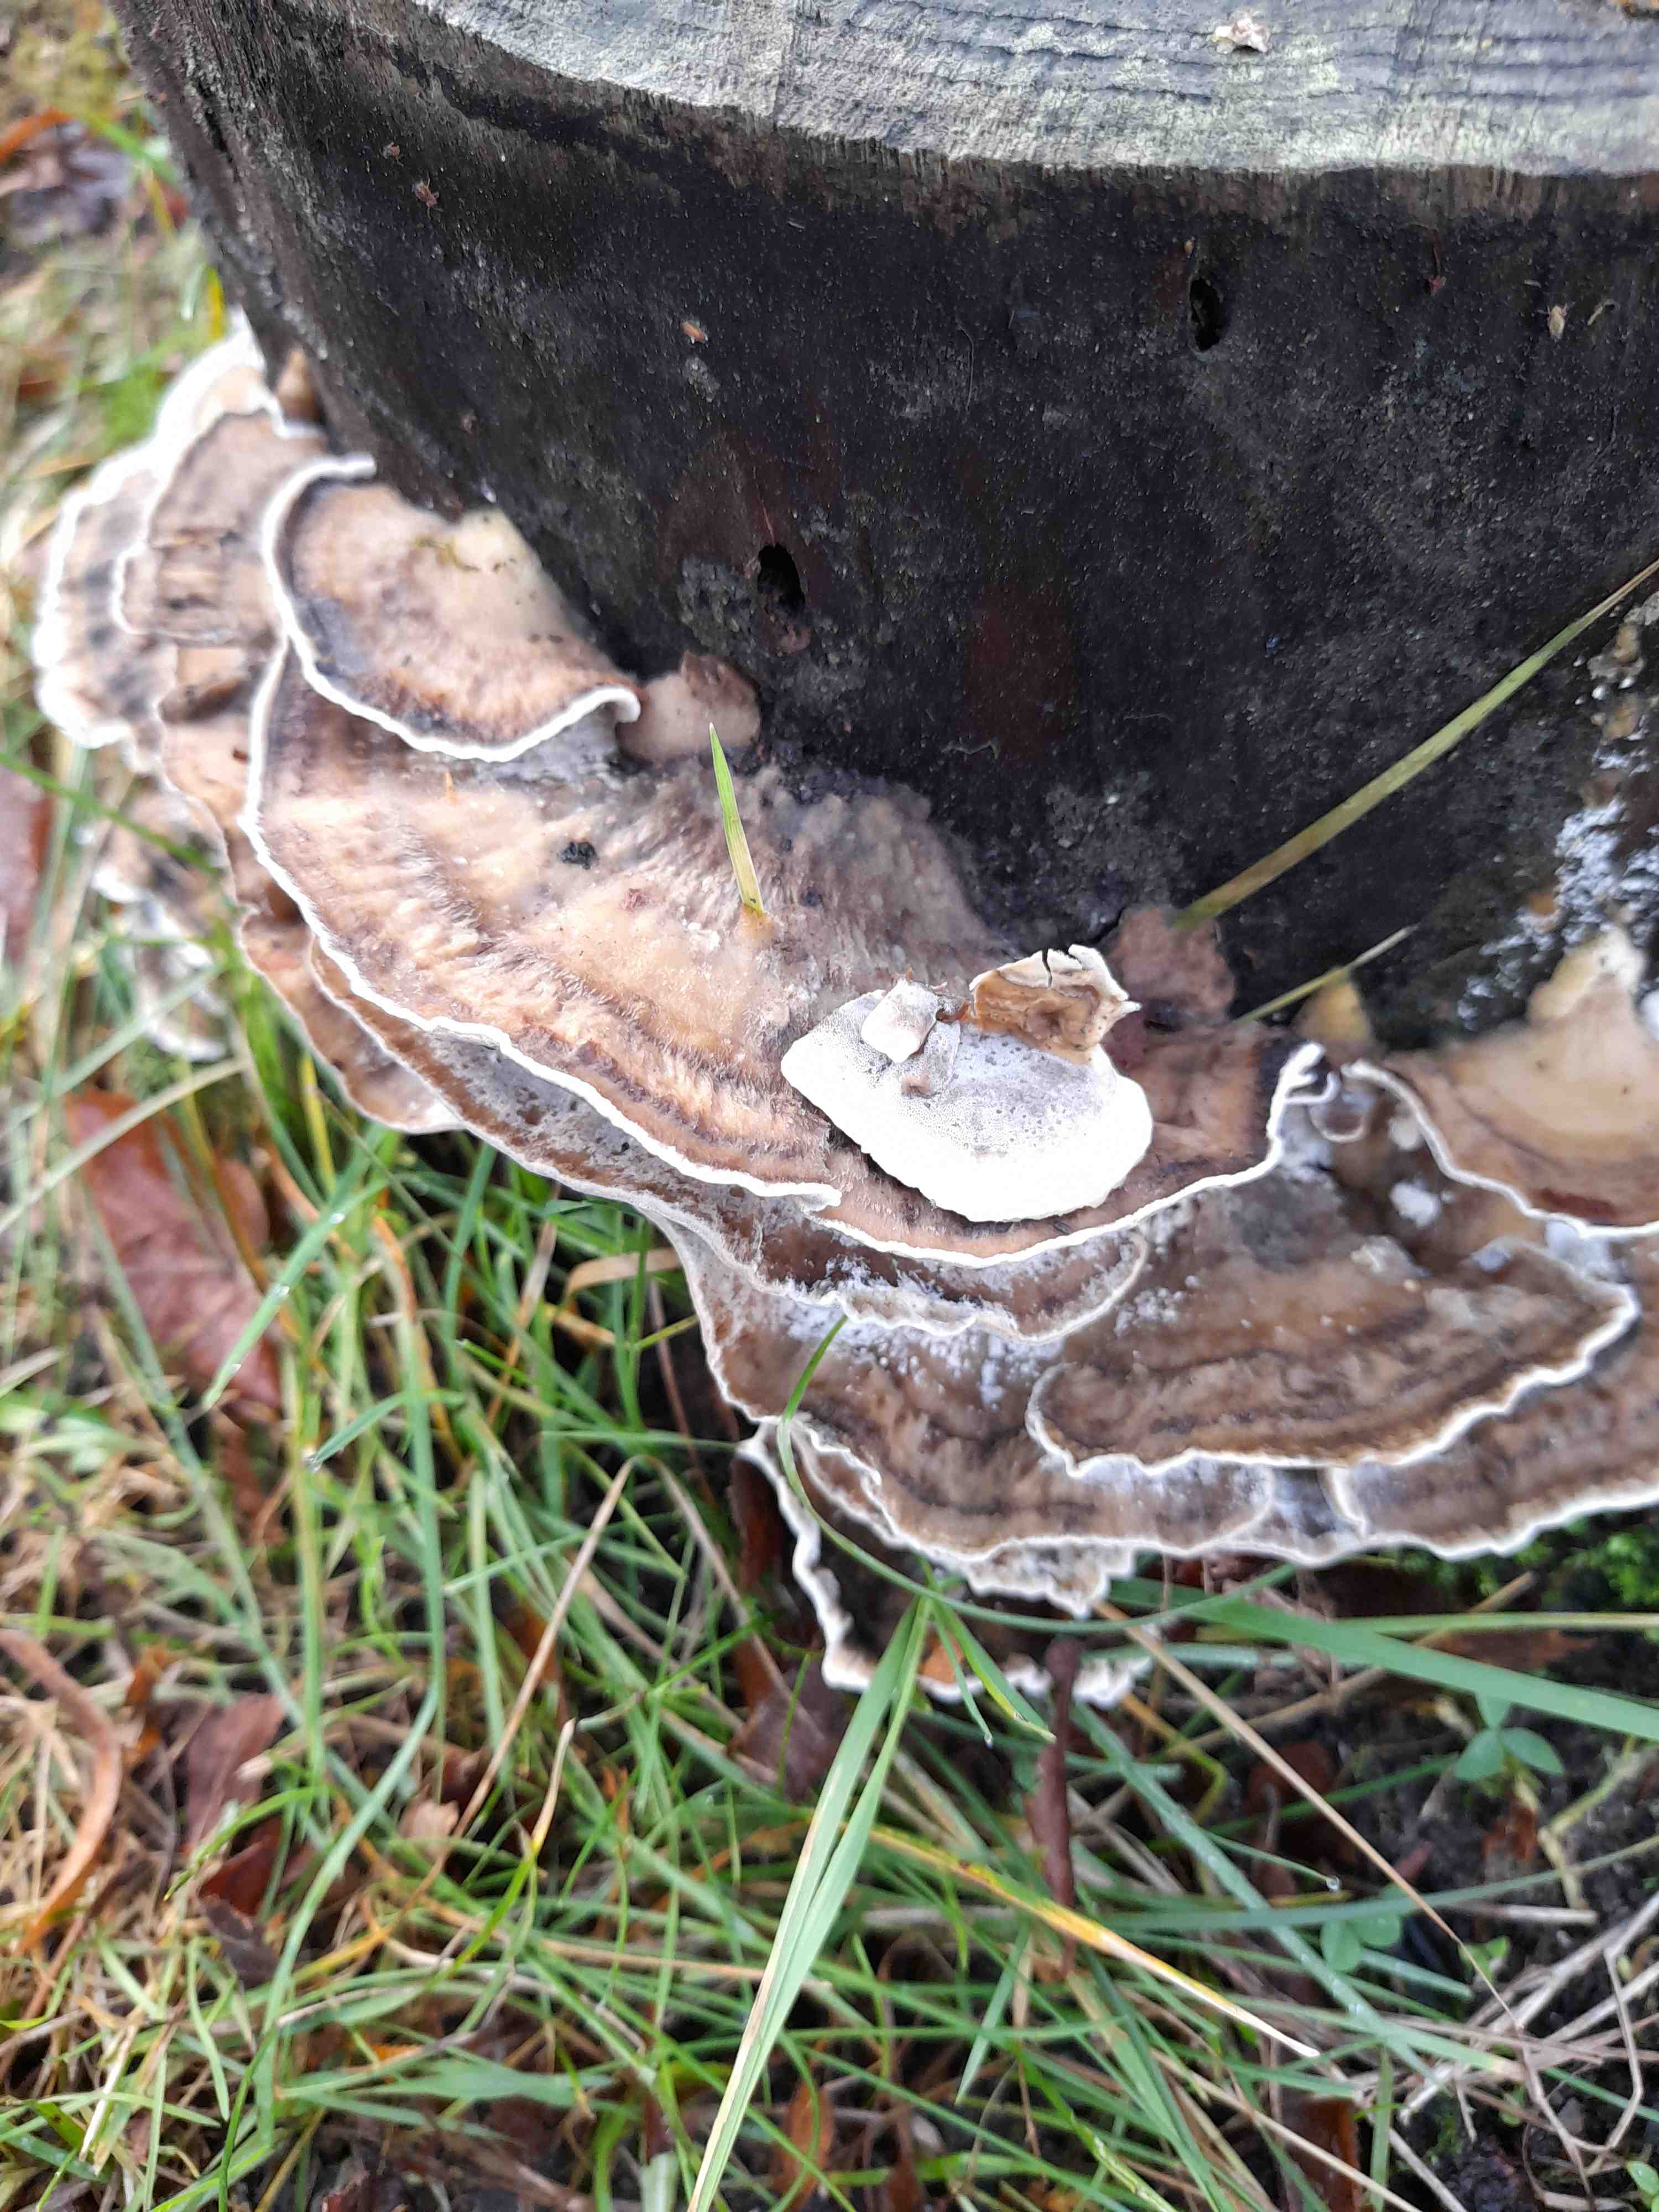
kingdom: Fungi
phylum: Basidiomycota
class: Agaricomycetes
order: Polyporales
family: Phanerochaetaceae
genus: Bjerkandera
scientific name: Bjerkandera adusta
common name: sveden sodporesvamp
